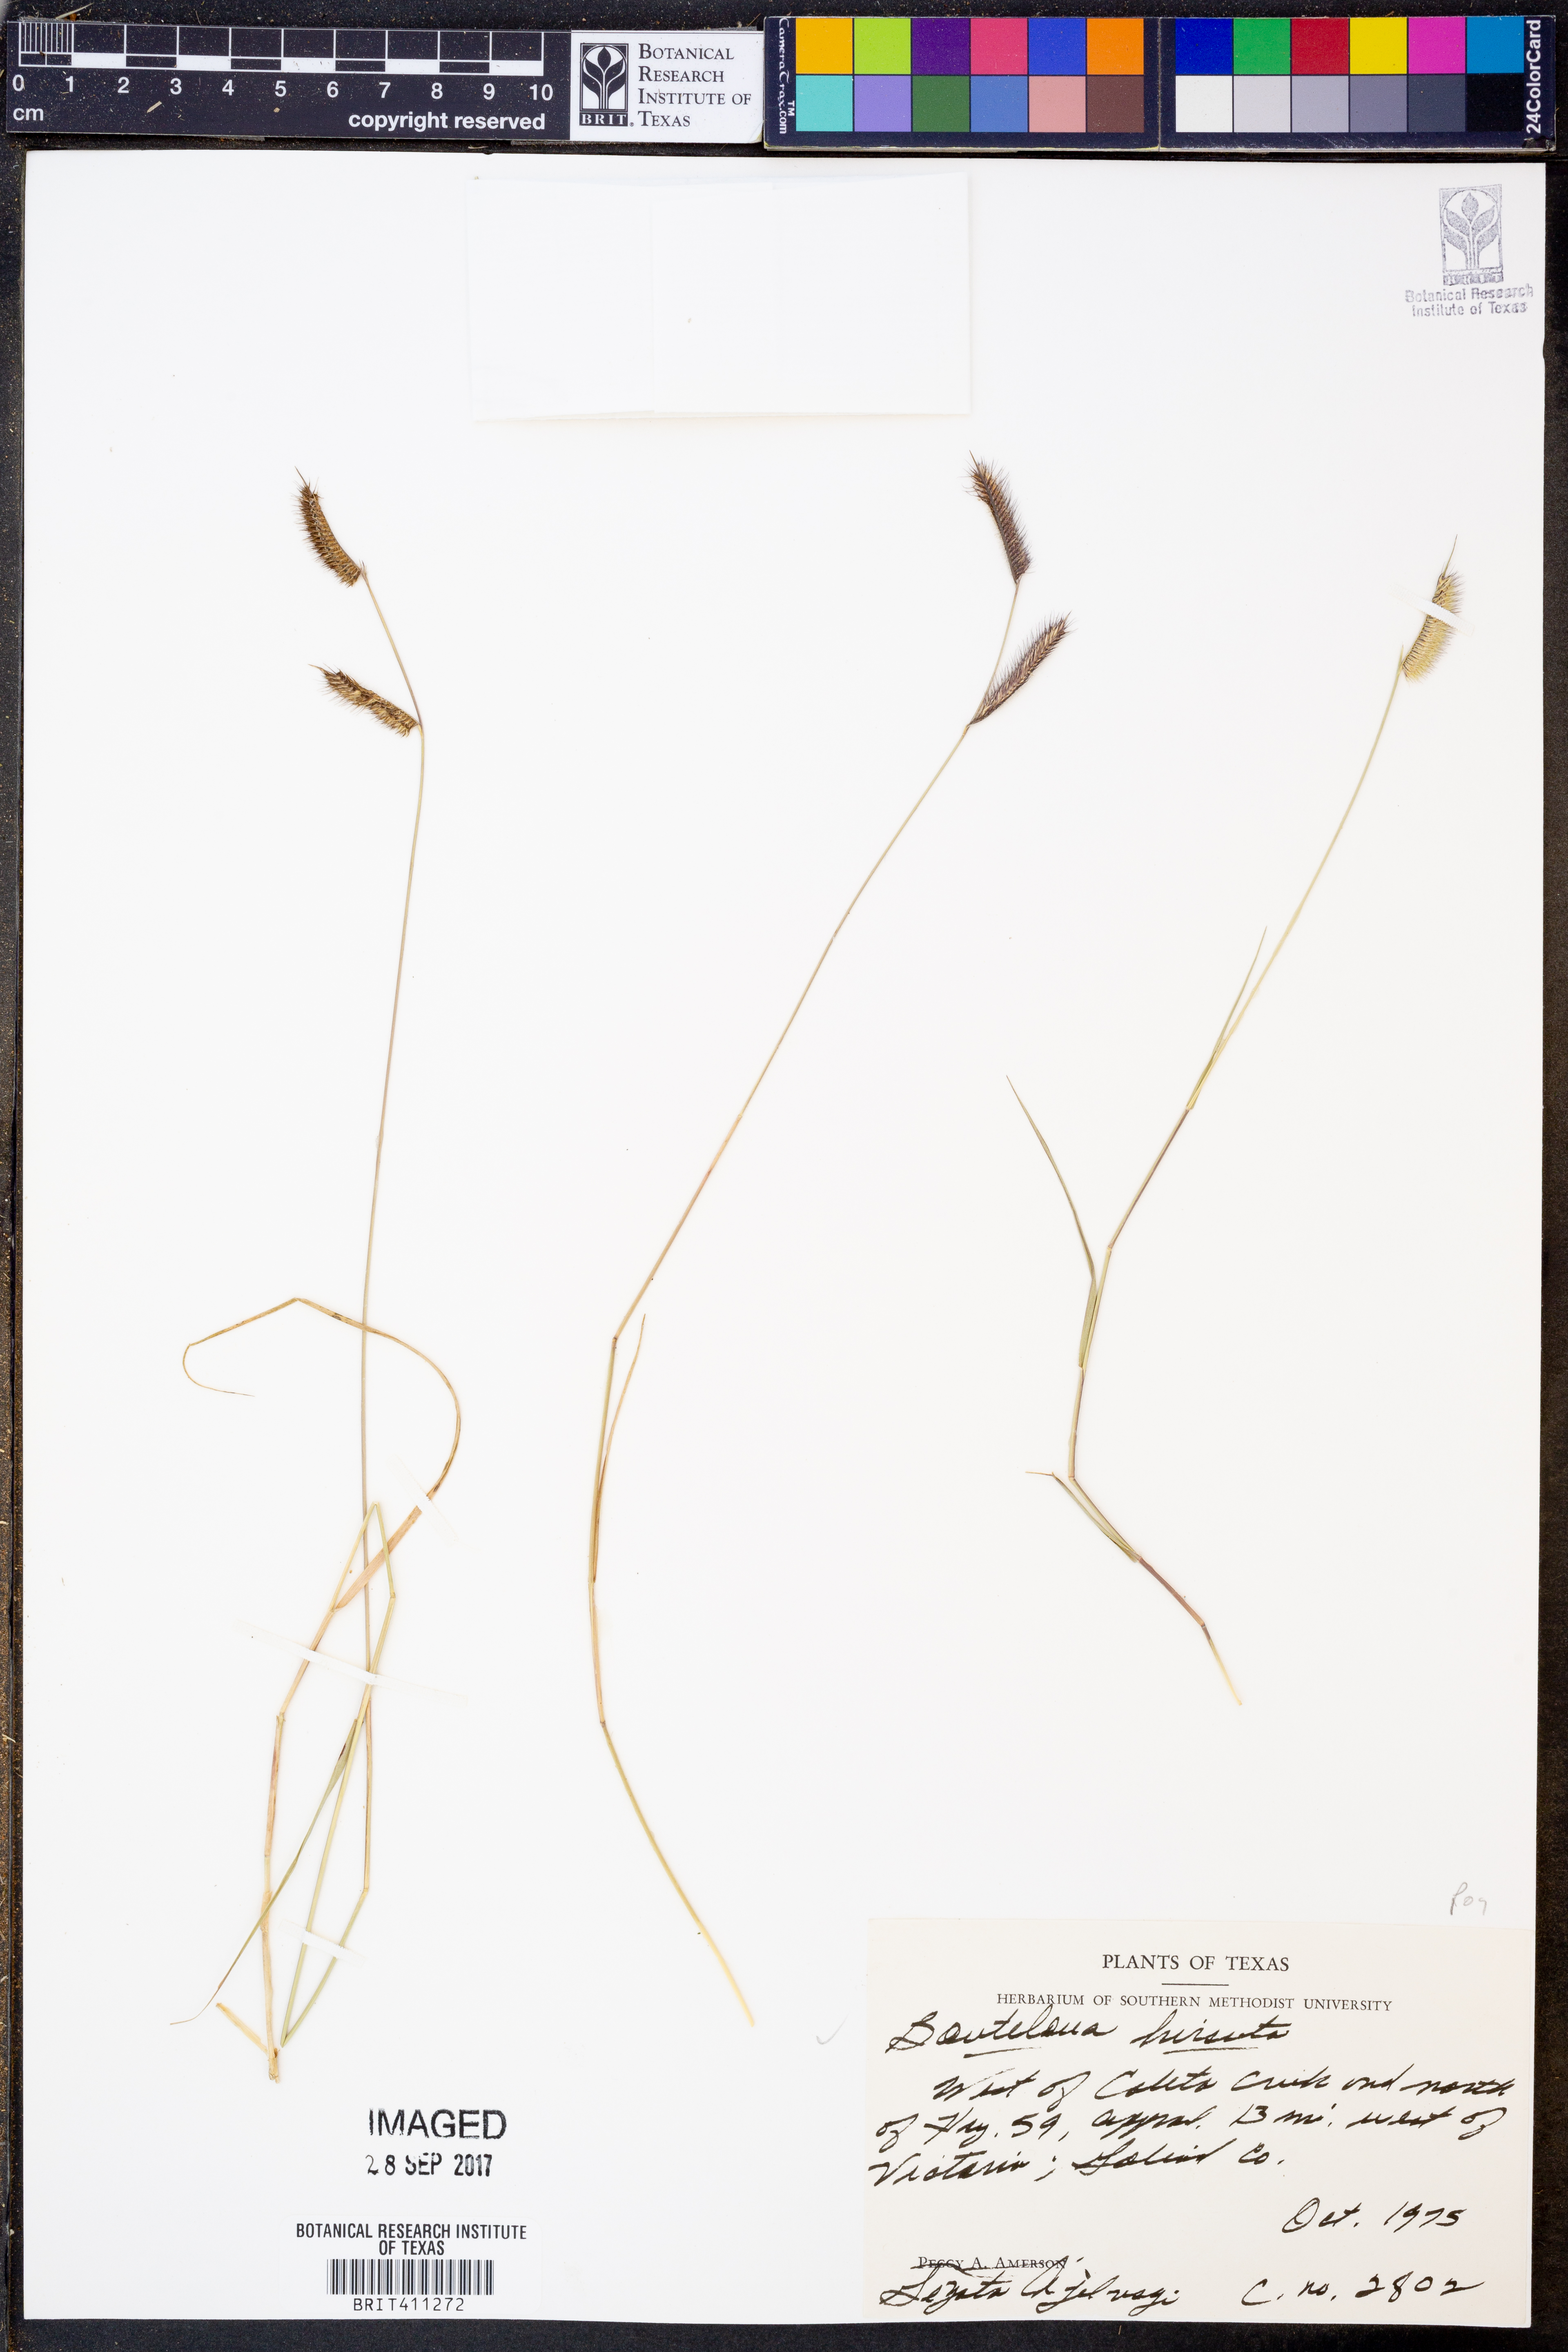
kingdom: Plantae
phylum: Tracheophyta
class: Liliopsida
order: Poales
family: Poaceae
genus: Bouteloua
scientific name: Bouteloua hirsuta
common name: Hairy grama
